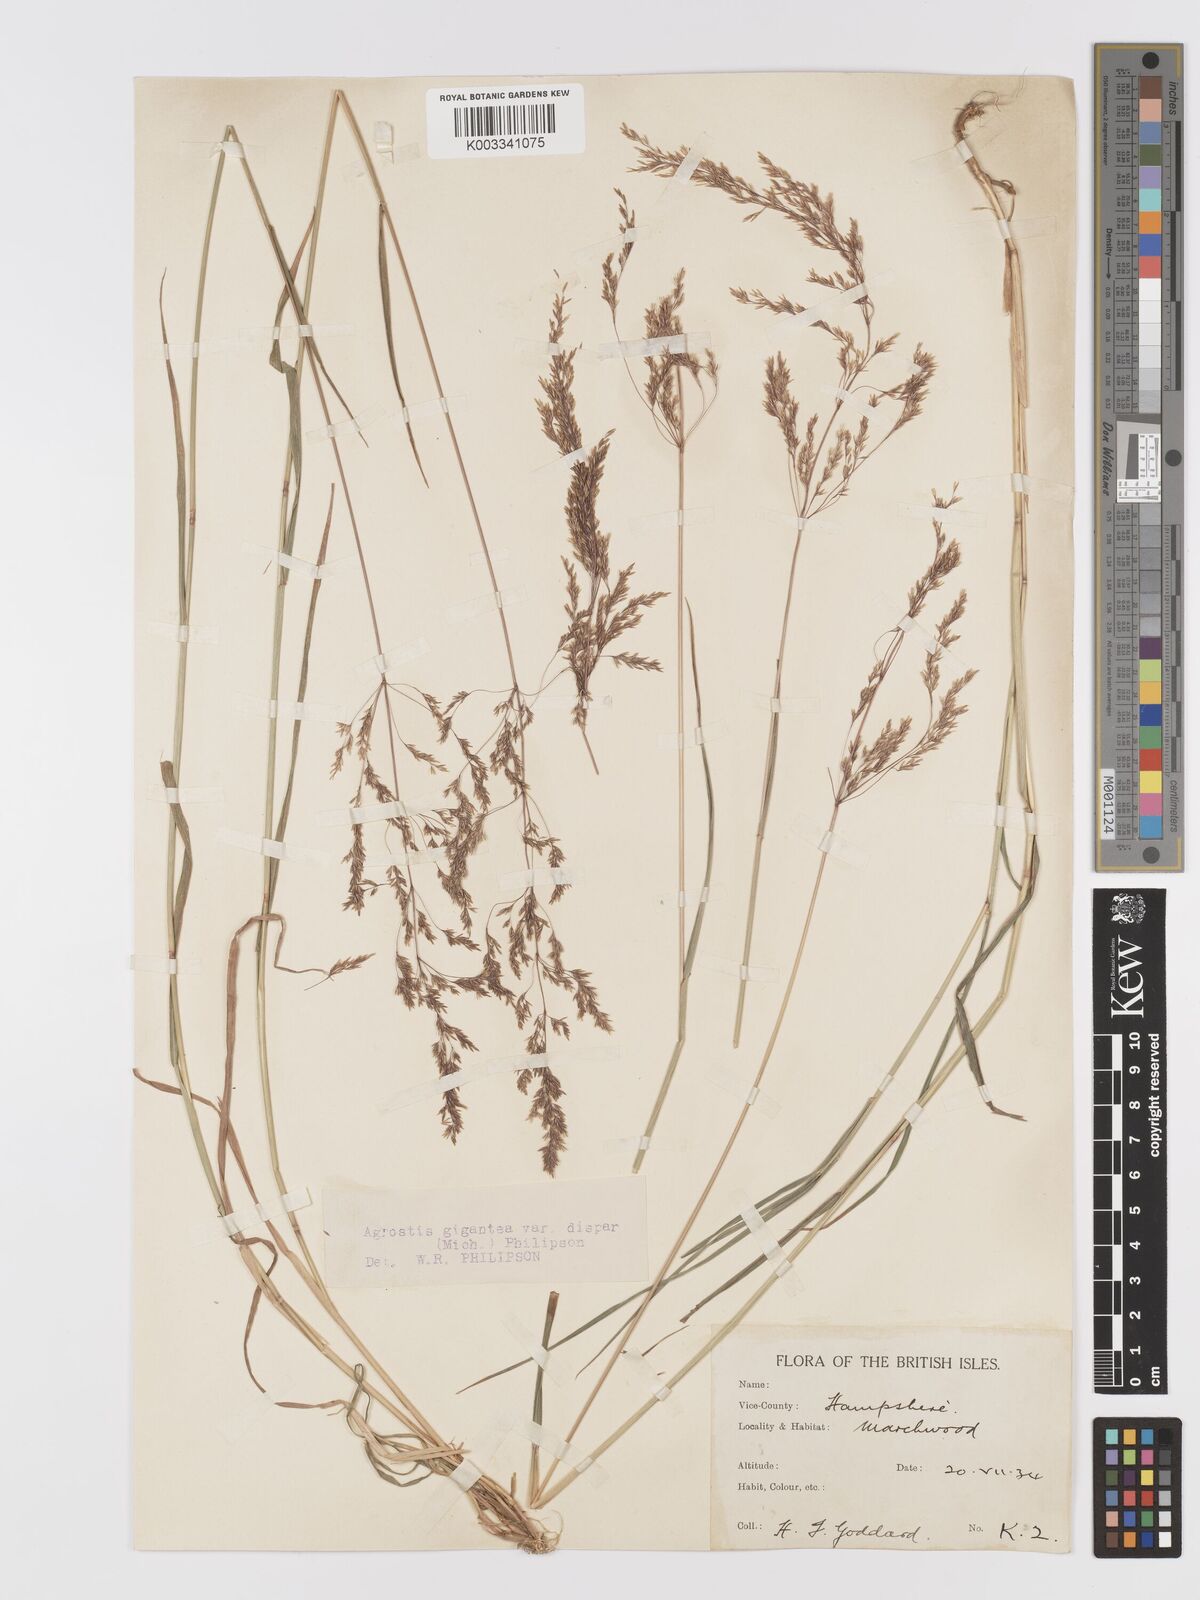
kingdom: Plantae
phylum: Tracheophyta
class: Liliopsida
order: Poales
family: Poaceae
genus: Agrostis
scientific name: Agrostis gigantea
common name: Black bent
